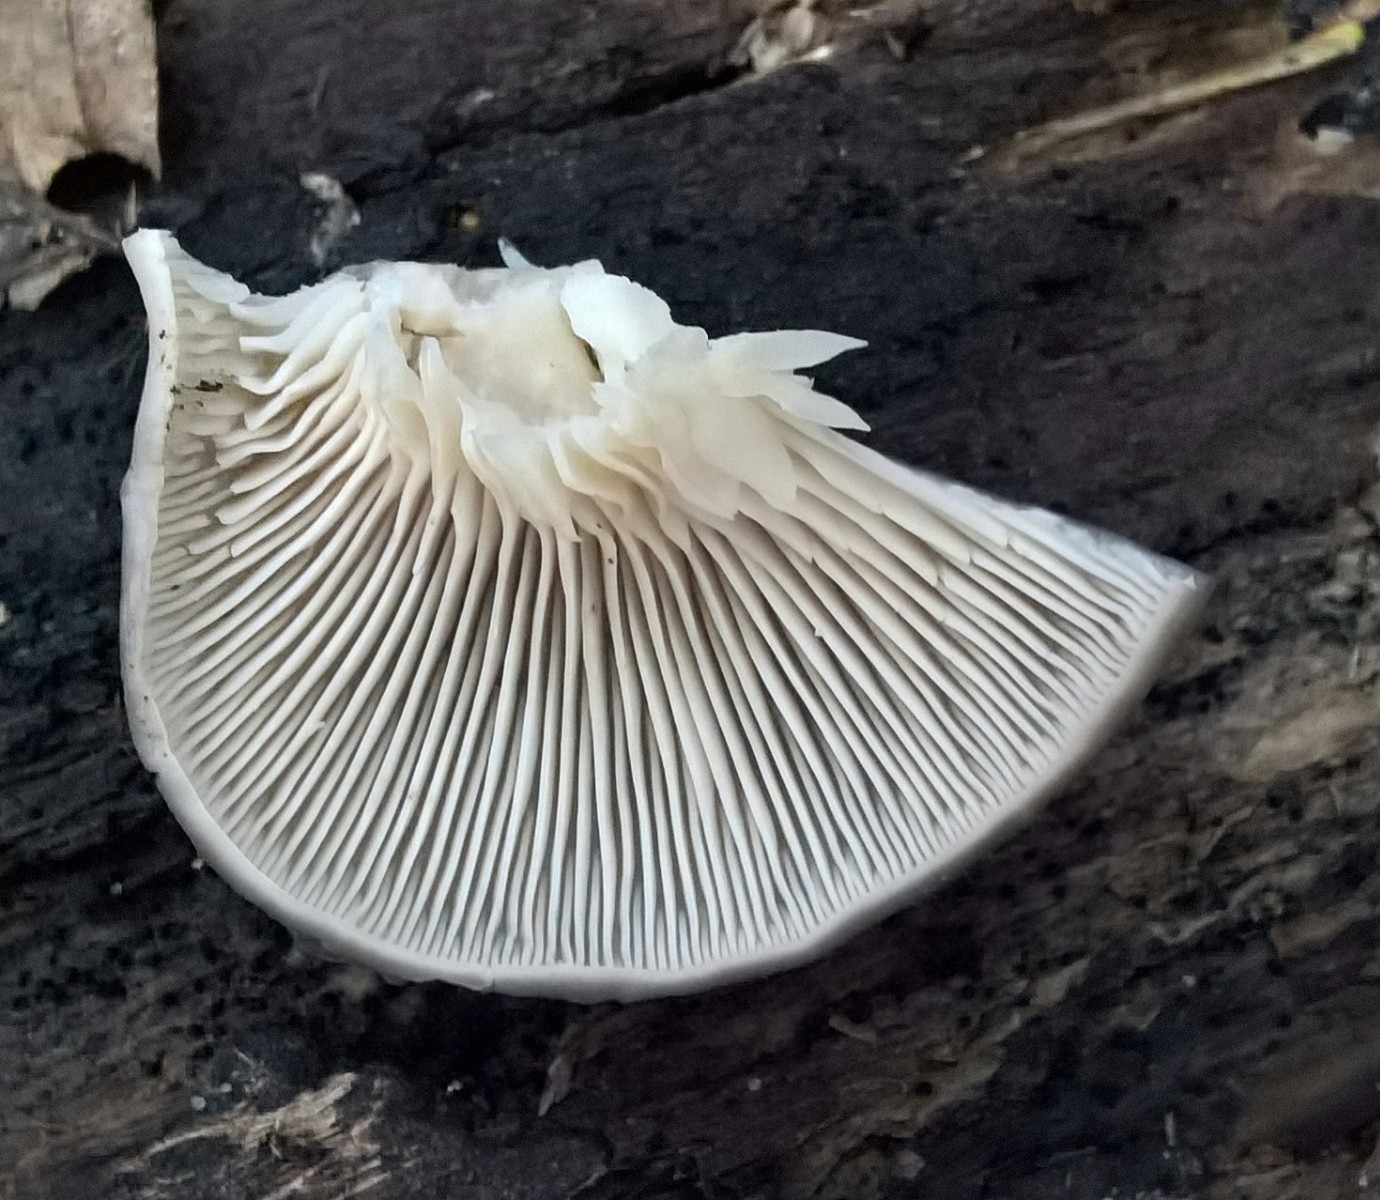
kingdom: Fungi
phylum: Basidiomycota
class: Agaricomycetes
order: Agaricales
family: Pleurotaceae
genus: Pleurotus
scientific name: Pleurotus ostreatus
